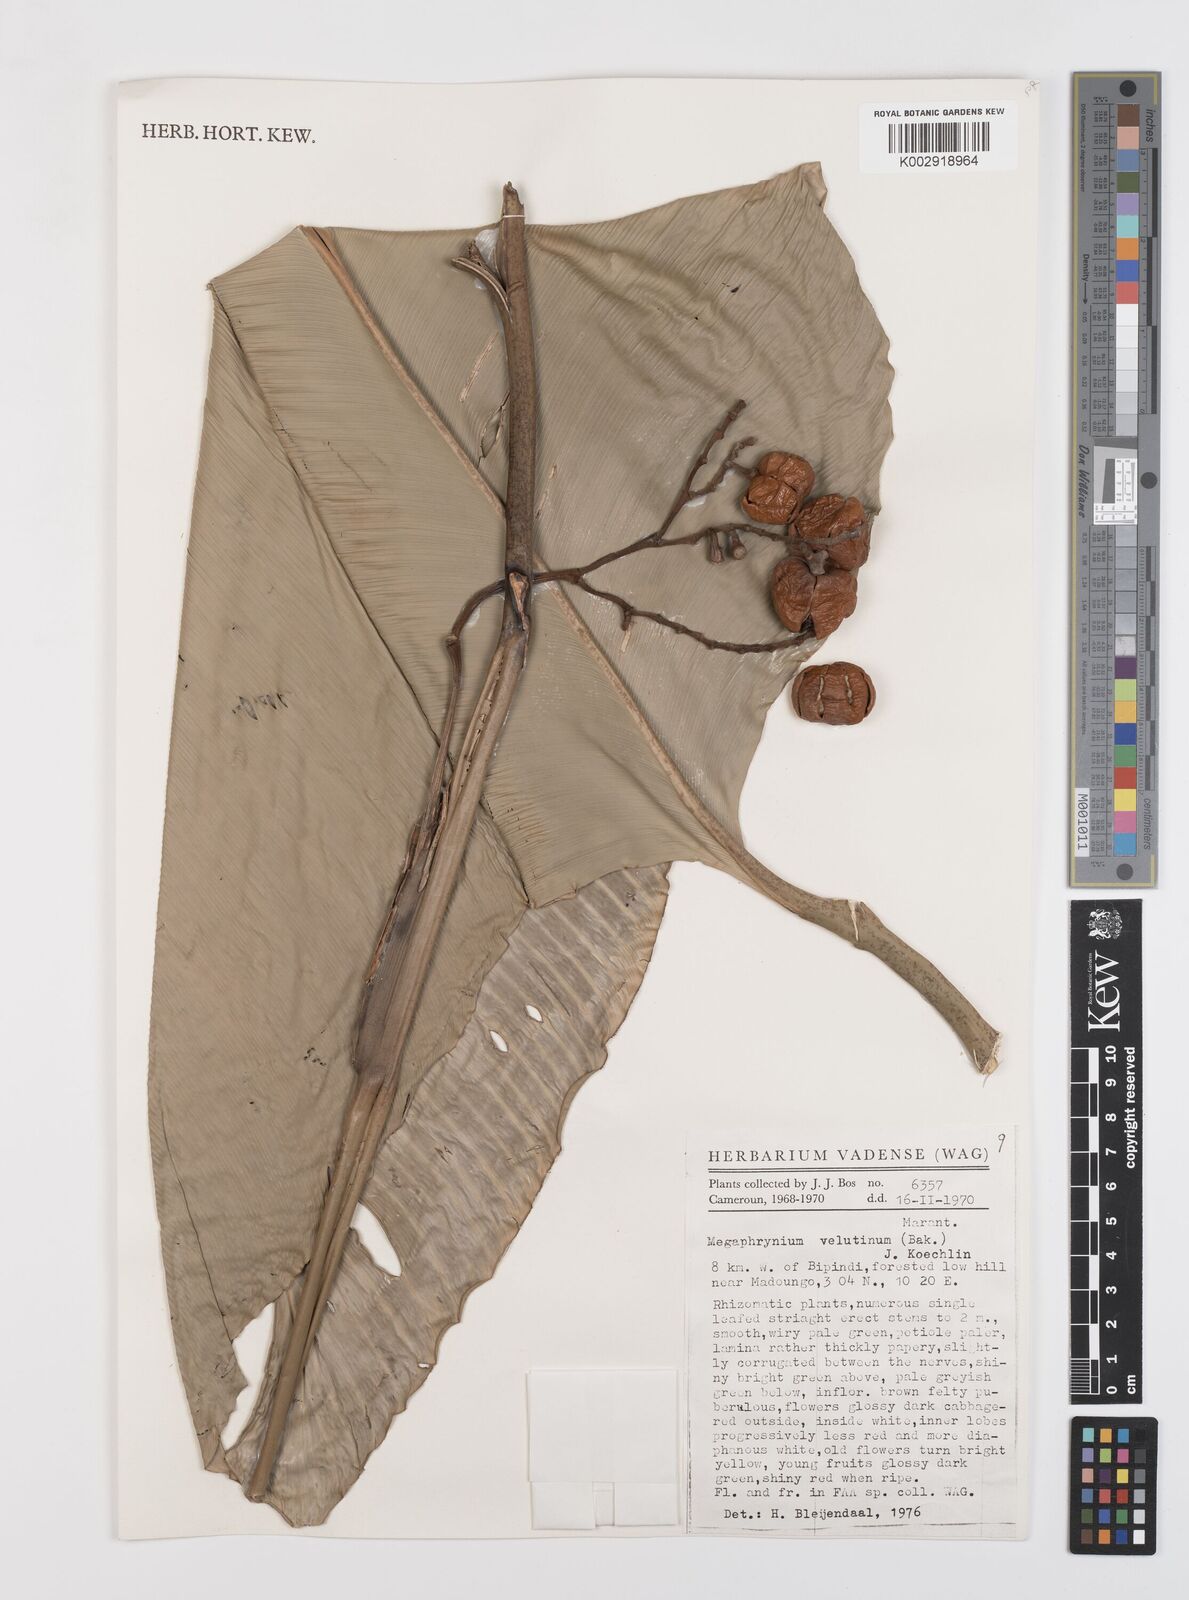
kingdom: Plantae
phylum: Tracheophyta
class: Liliopsida
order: Zingiberales
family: Marantaceae
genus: Megaphrynium
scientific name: Megaphrynium velutinum
